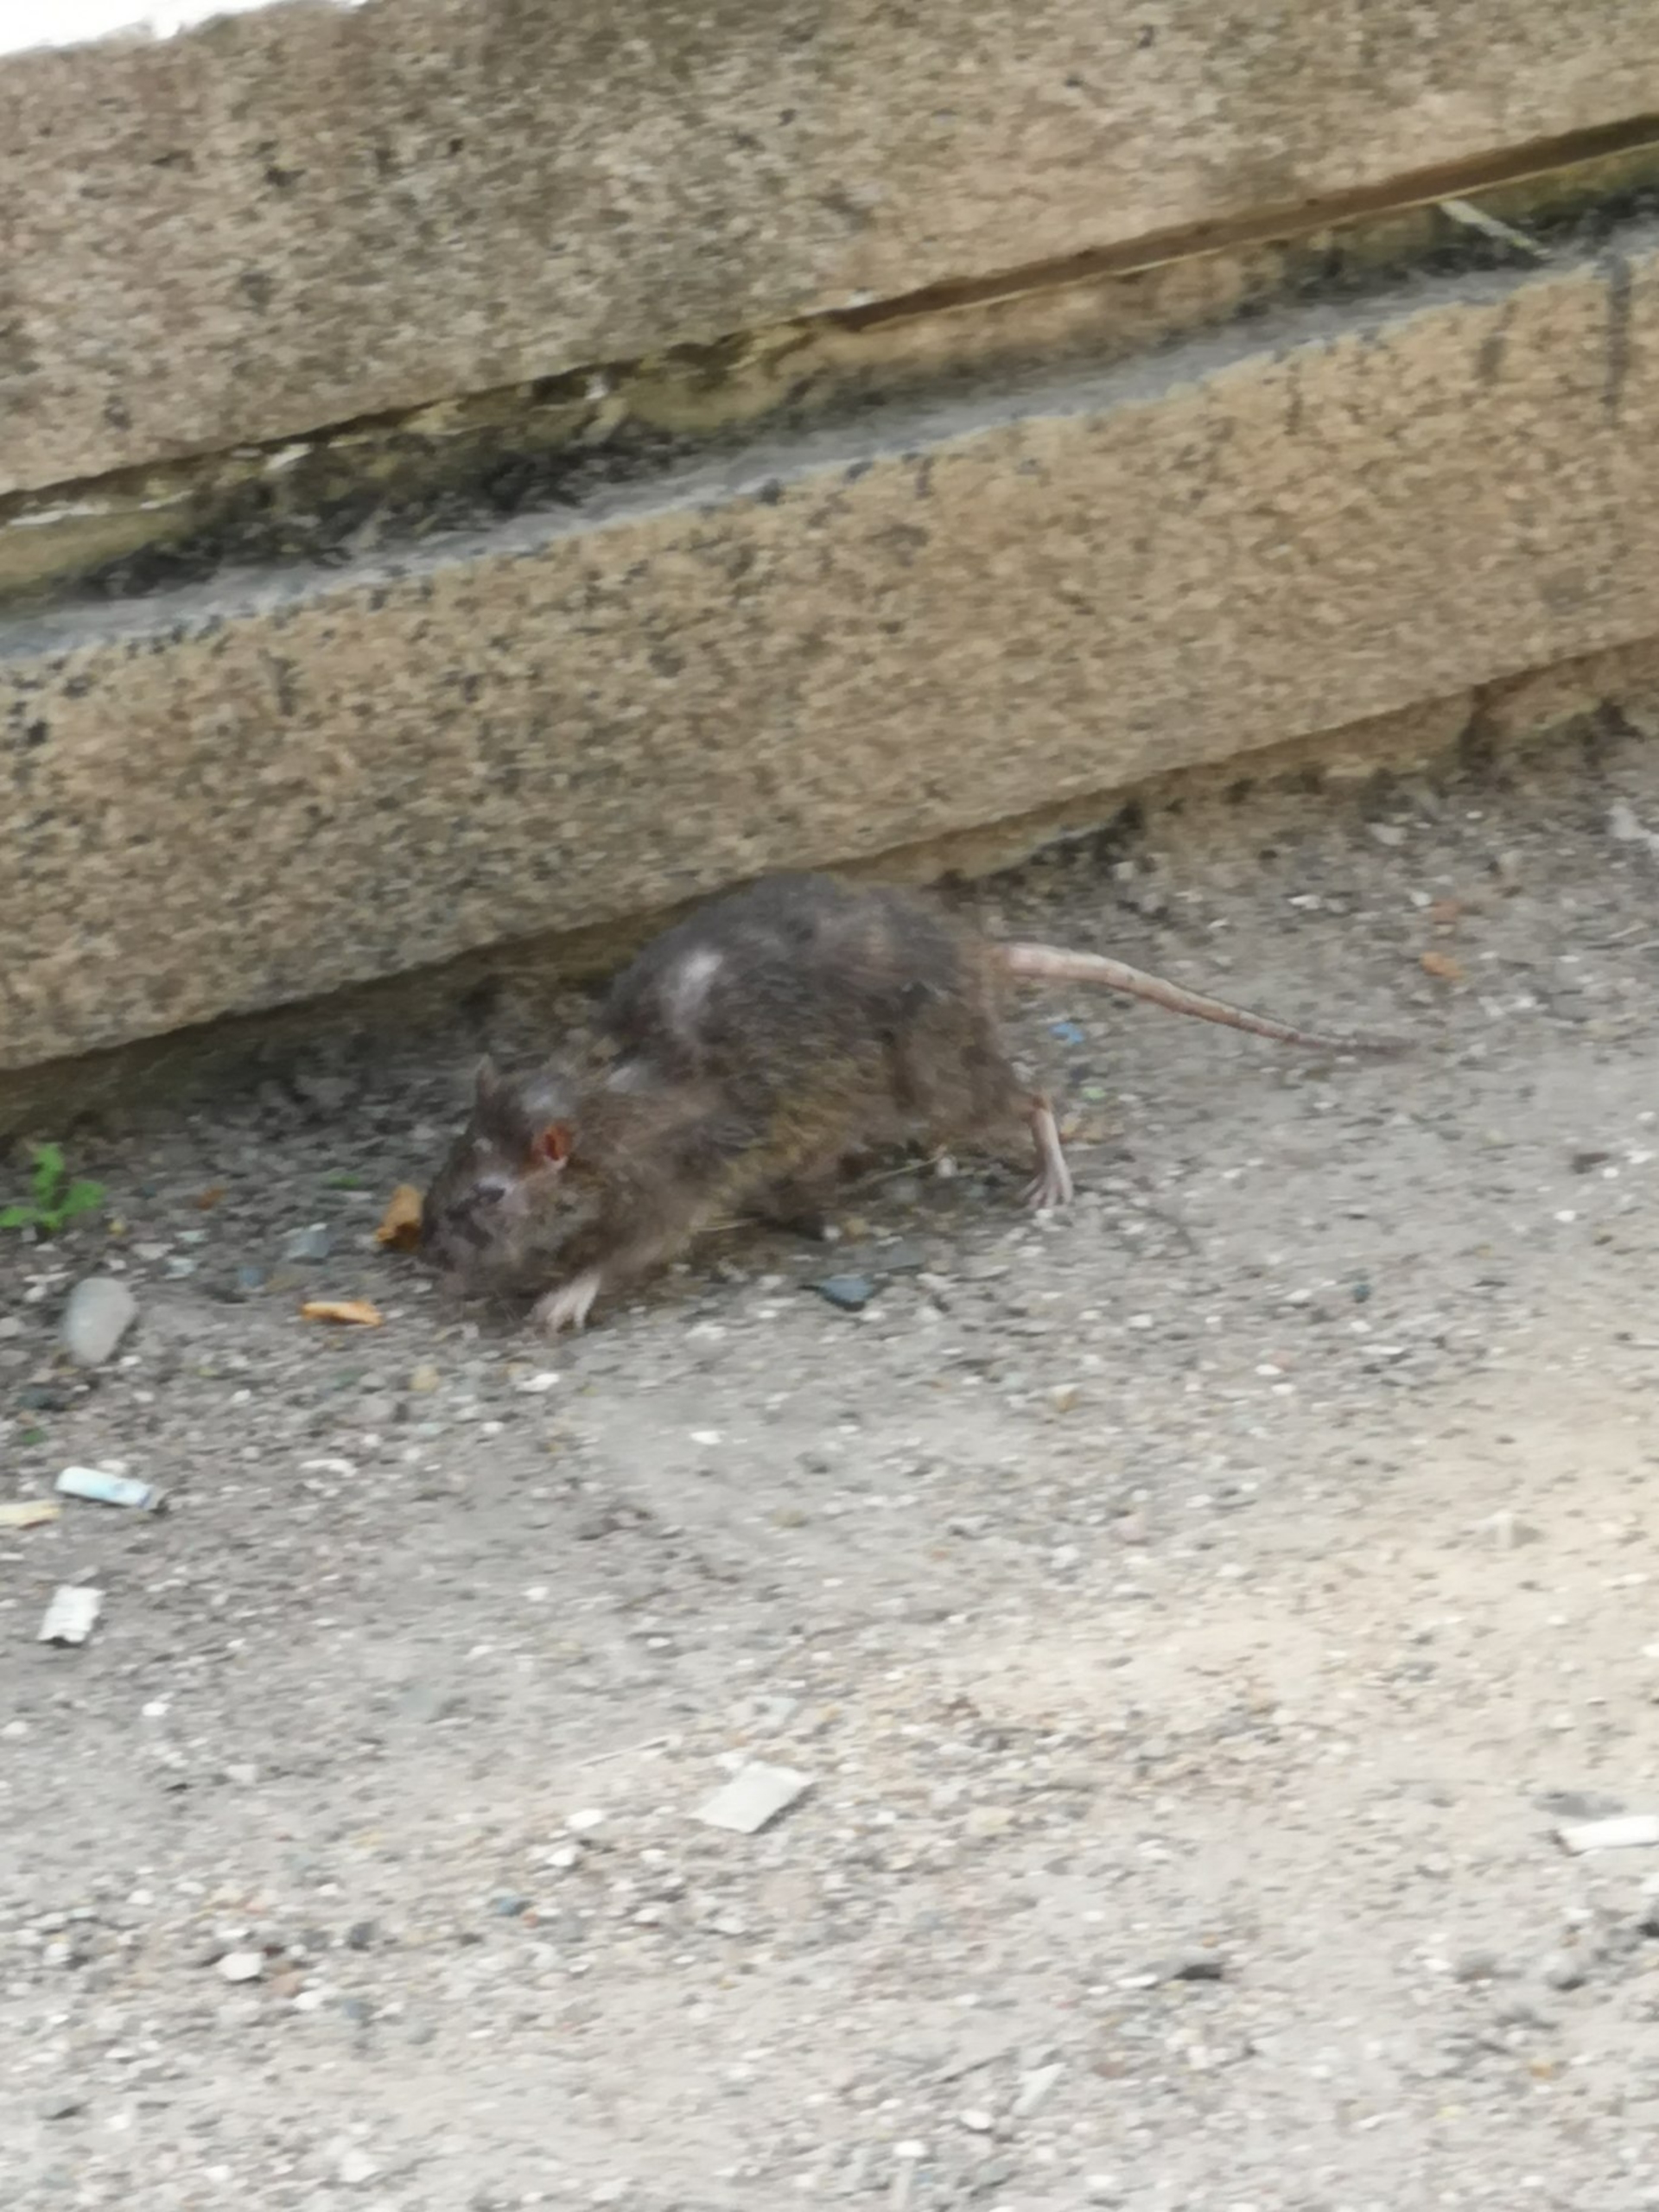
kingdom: Animalia
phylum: Chordata
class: Mammalia
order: Rodentia
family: Muridae
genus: Rattus
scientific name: Rattus norvegicus
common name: Brun rotte
